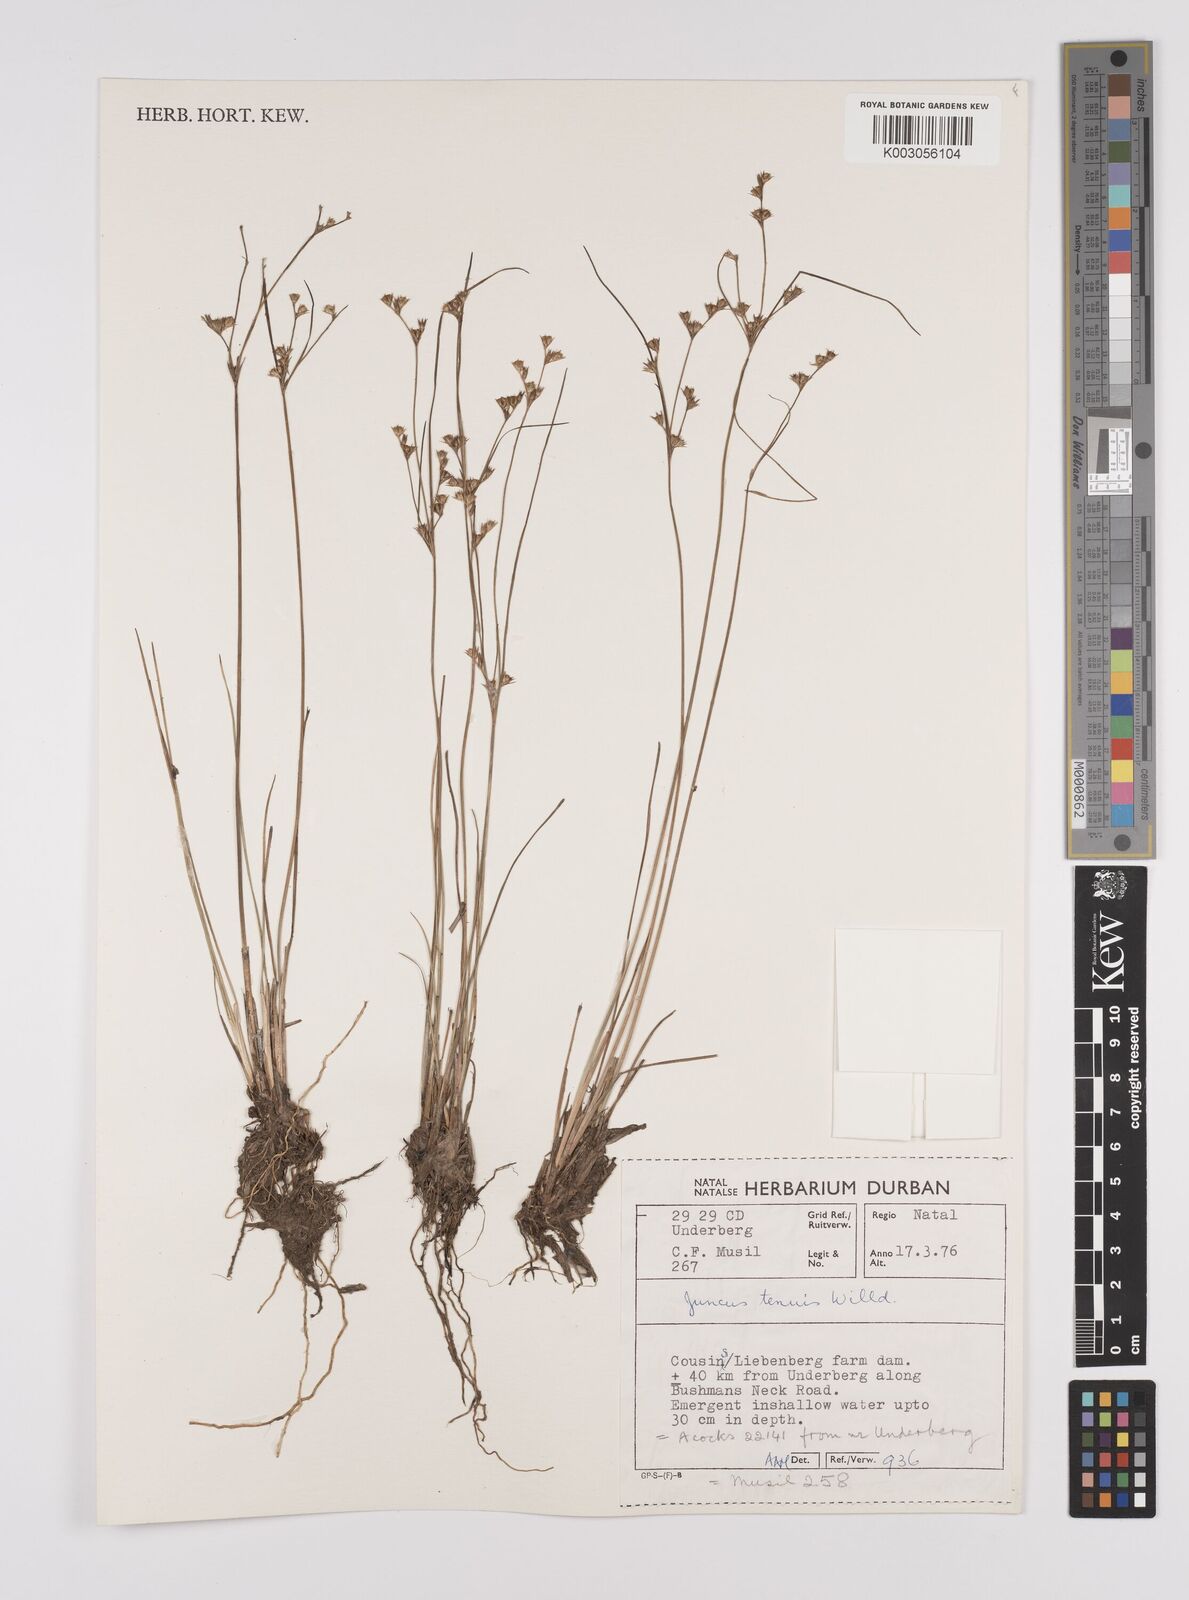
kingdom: Plantae
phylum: Tracheophyta
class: Liliopsida
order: Poales
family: Juncaceae
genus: Juncus
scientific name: Juncus tenuis
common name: Slender rush
